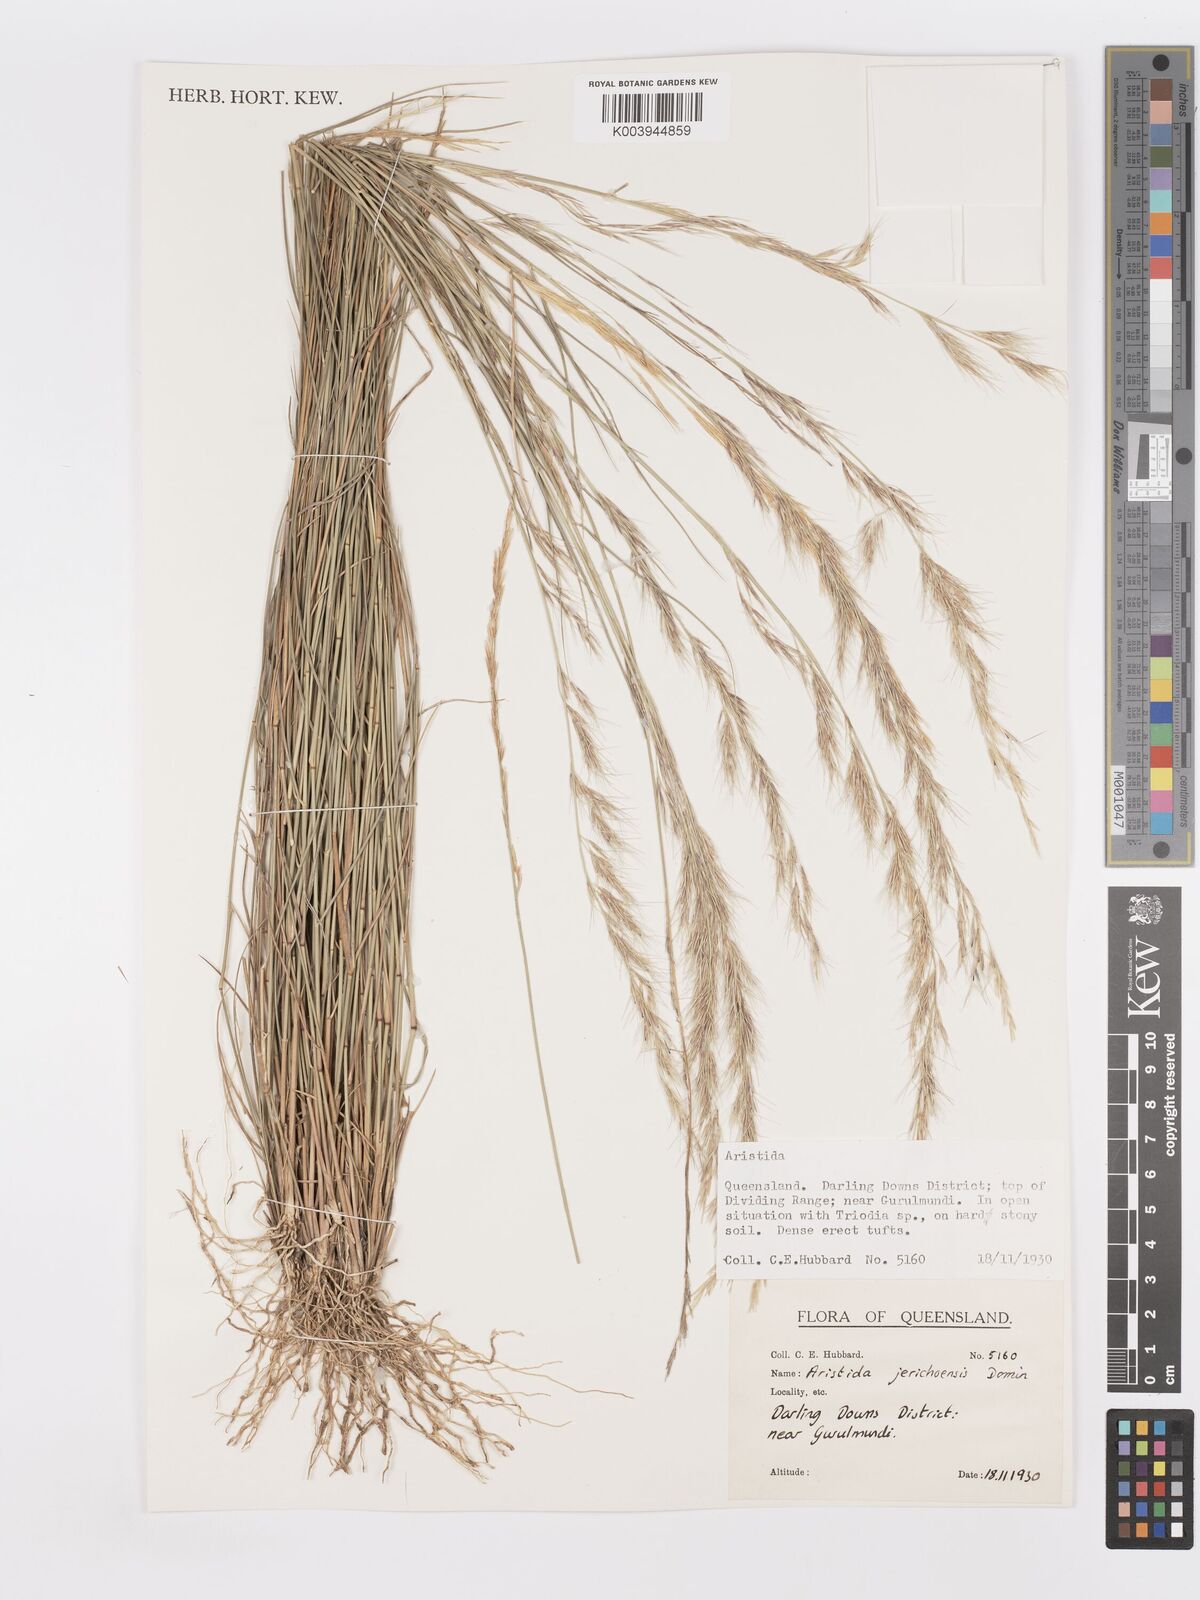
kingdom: Plantae
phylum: Tracheophyta
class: Liliopsida
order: Poales
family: Poaceae
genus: Aristida
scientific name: Aristida jerichoensis
